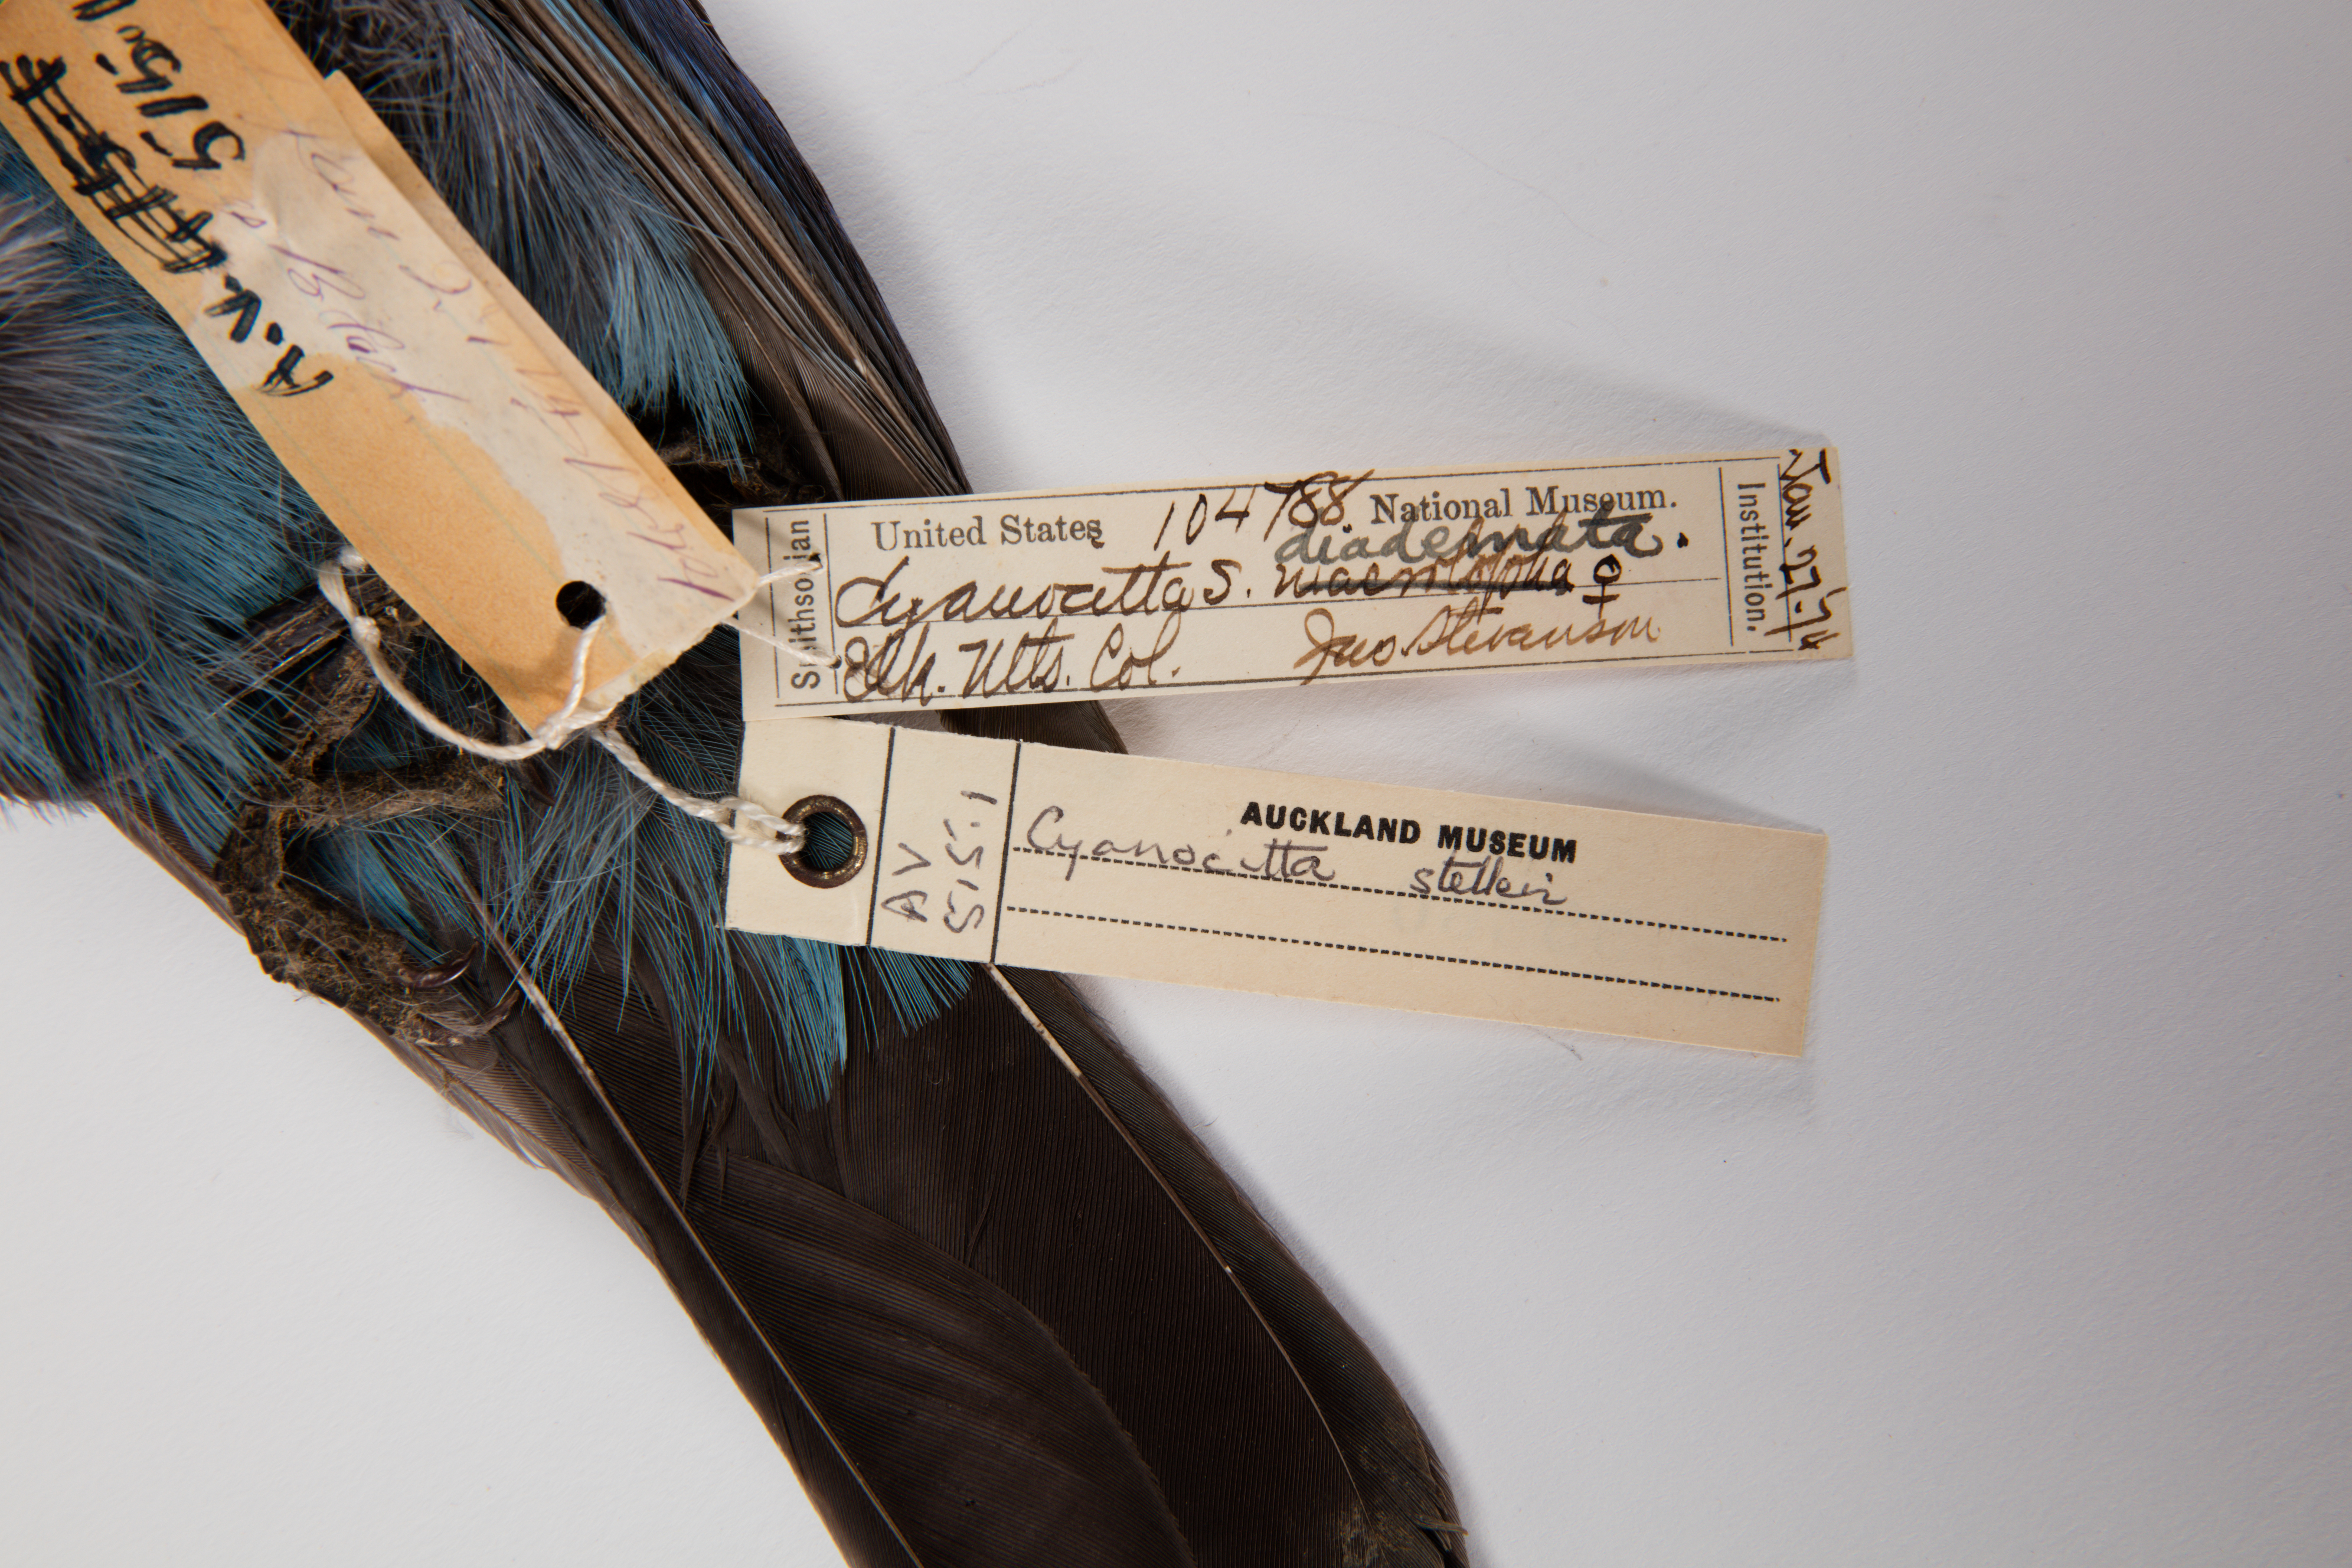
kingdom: Animalia
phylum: Chordata
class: Aves
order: Passeriformes
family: Corvidae
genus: Cyanocitta
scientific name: Cyanocitta stelleri
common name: Steller's jay
